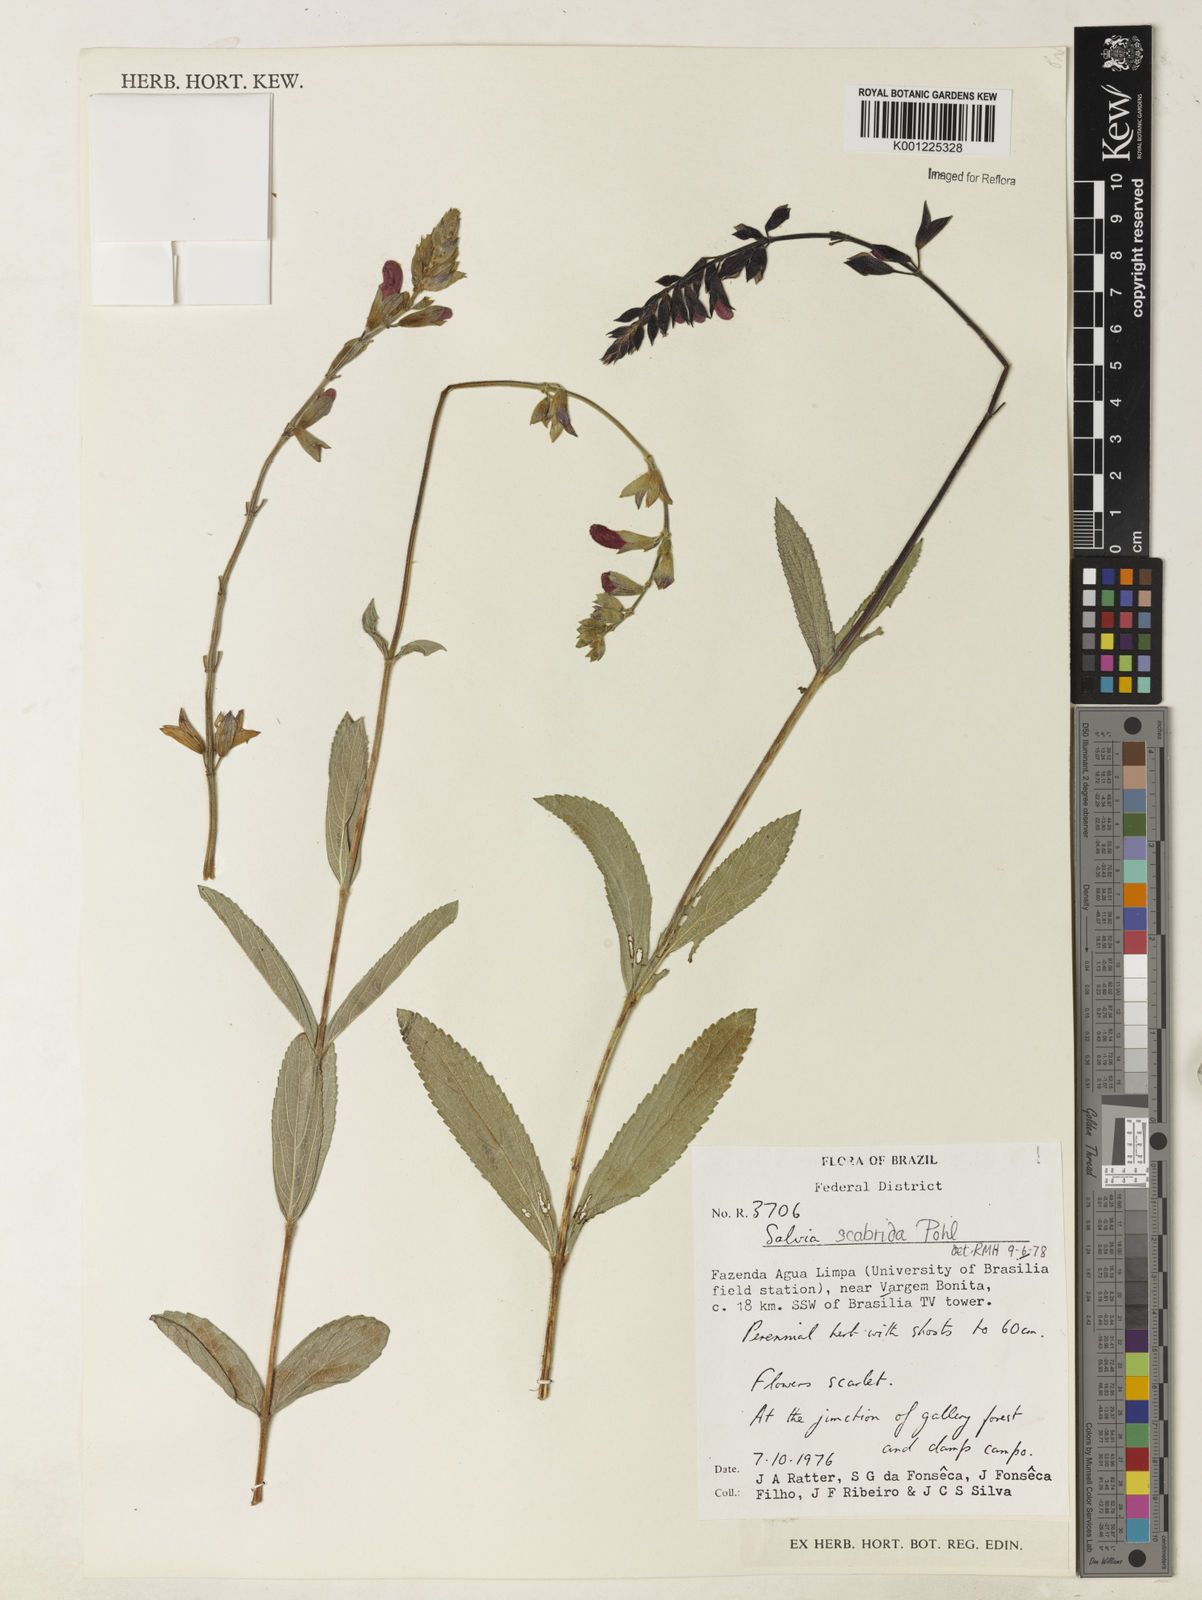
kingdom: Plantae
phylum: Tracheophyta
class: Magnoliopsida
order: Lamiales
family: Lamiaceae
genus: Salvia
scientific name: Salvia scabrida
